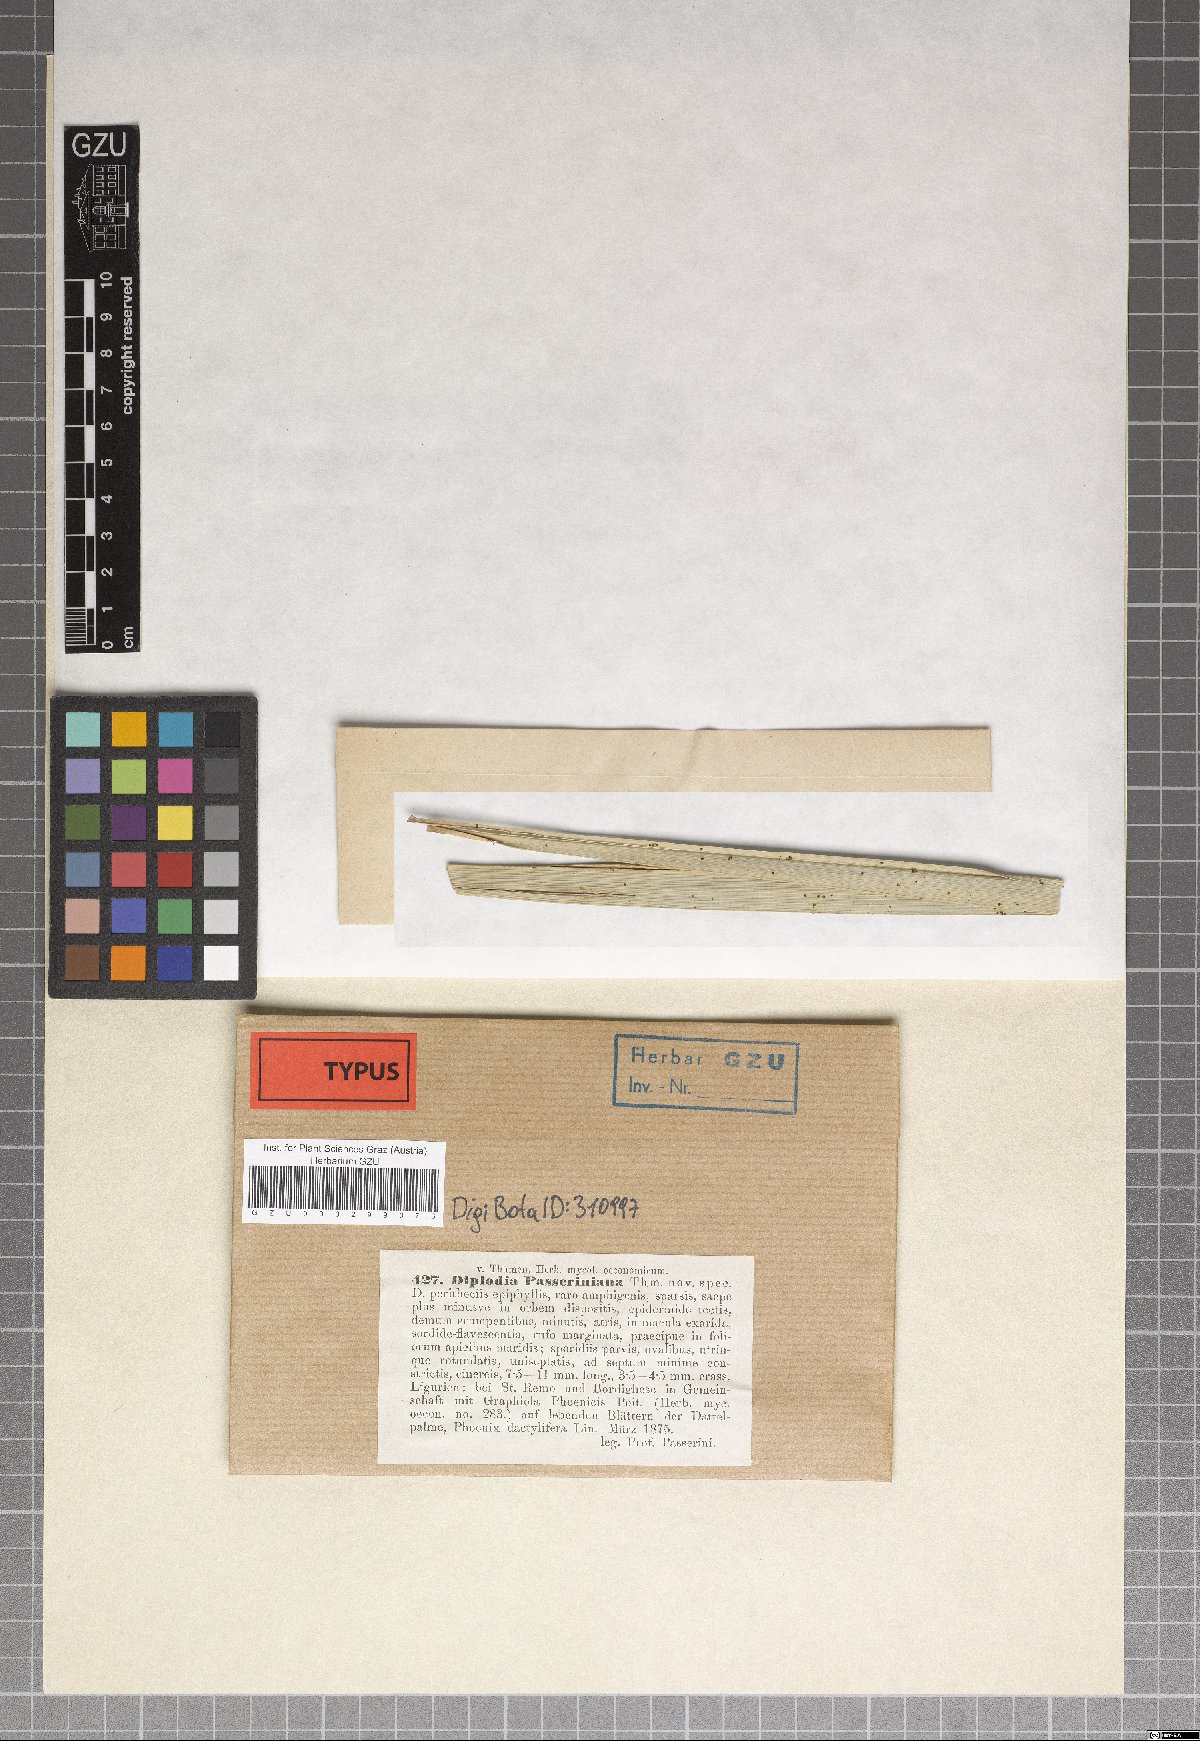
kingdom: Fungi
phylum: Ascomycota
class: Dothideomycetes
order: Botryosphaeriales
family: Botryosphaeriaceae
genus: Microdiplodia
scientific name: Microdiplodia passeriniana
